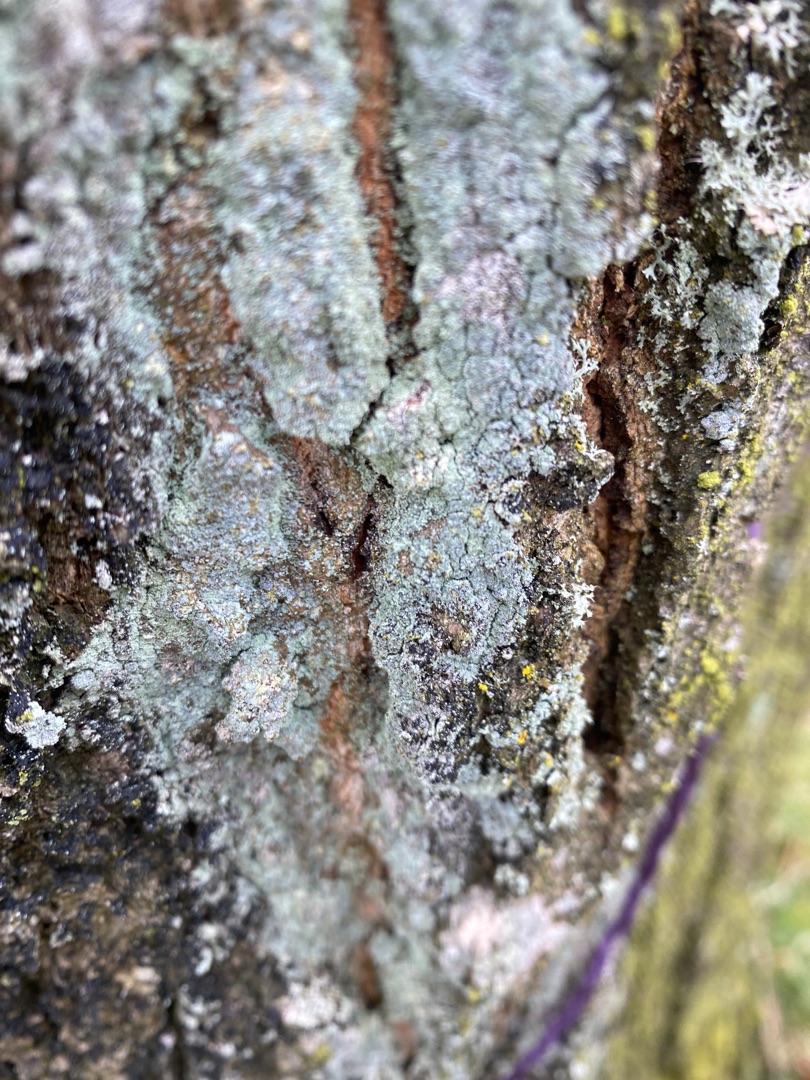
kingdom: Fungi
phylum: Ascomycota
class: Lecanoromycetes
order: Lecanorales
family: Stereocaulaceae
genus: Lepraria
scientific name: Lepraria
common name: Støvlav
